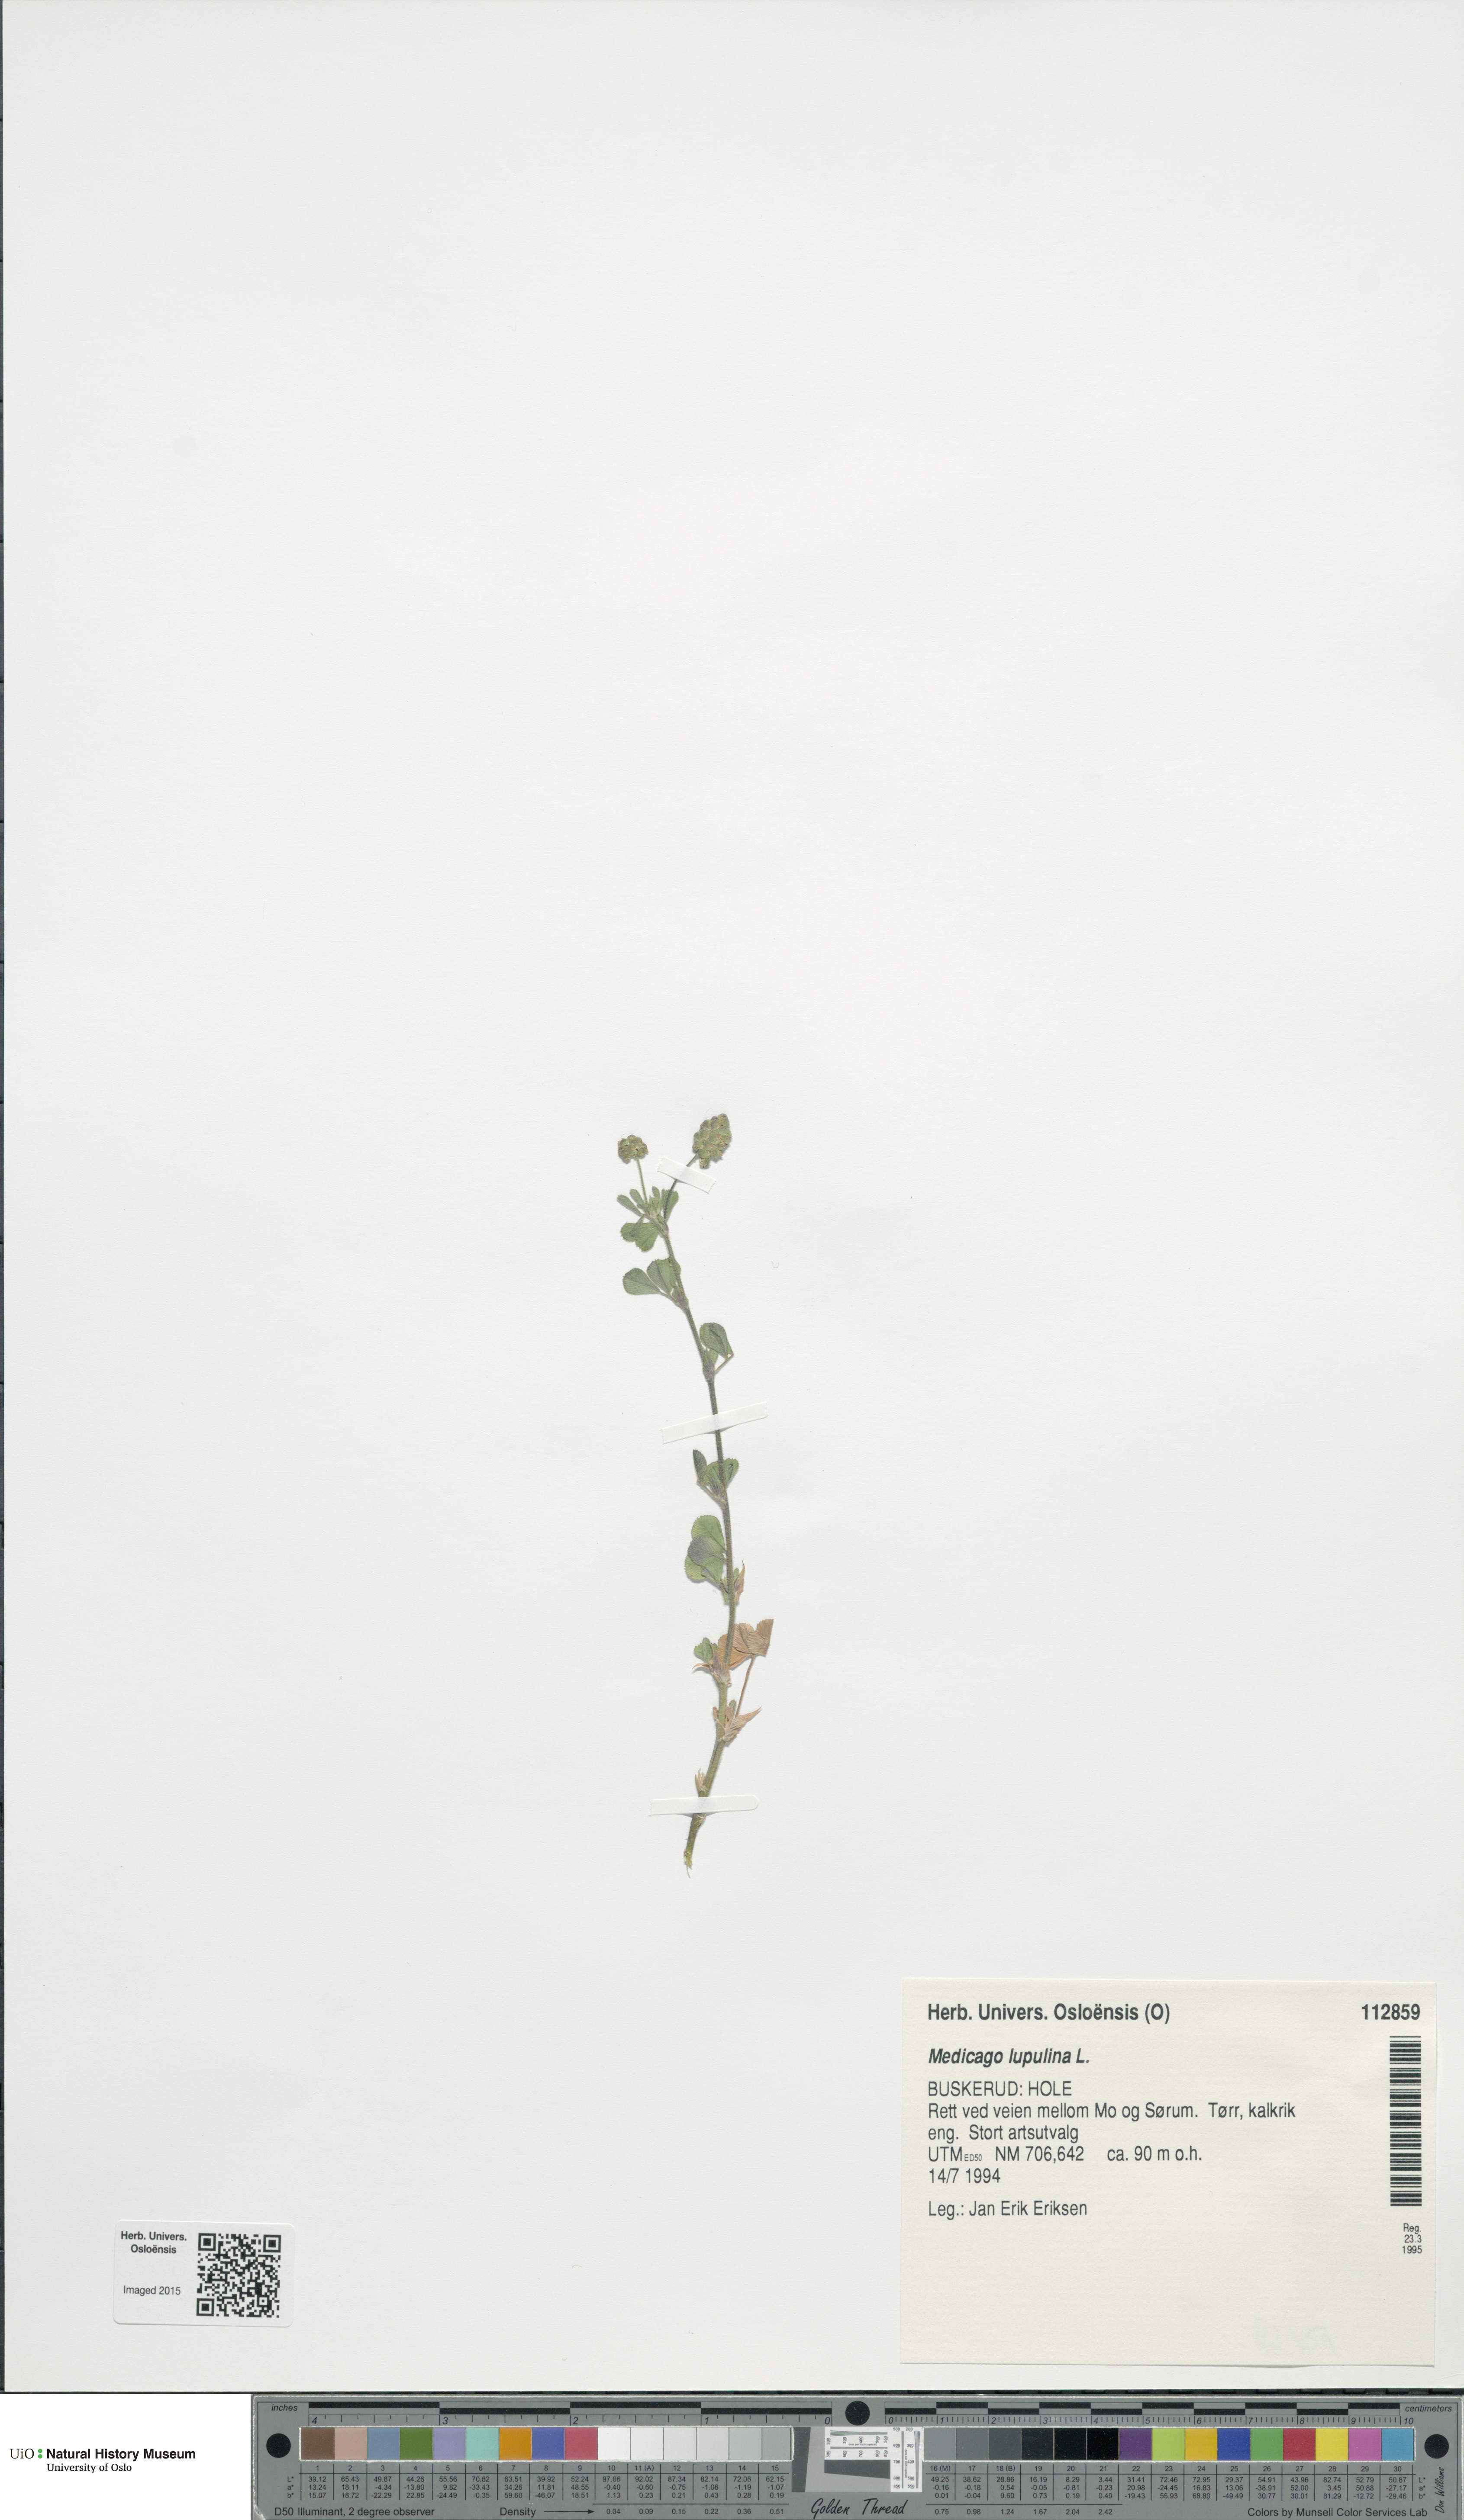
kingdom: Plantae
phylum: Tracheophyta
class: Magnoliopsida
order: Fabales
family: Fabaceae
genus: Medicago
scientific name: Medicago lupulina
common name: Black medick
